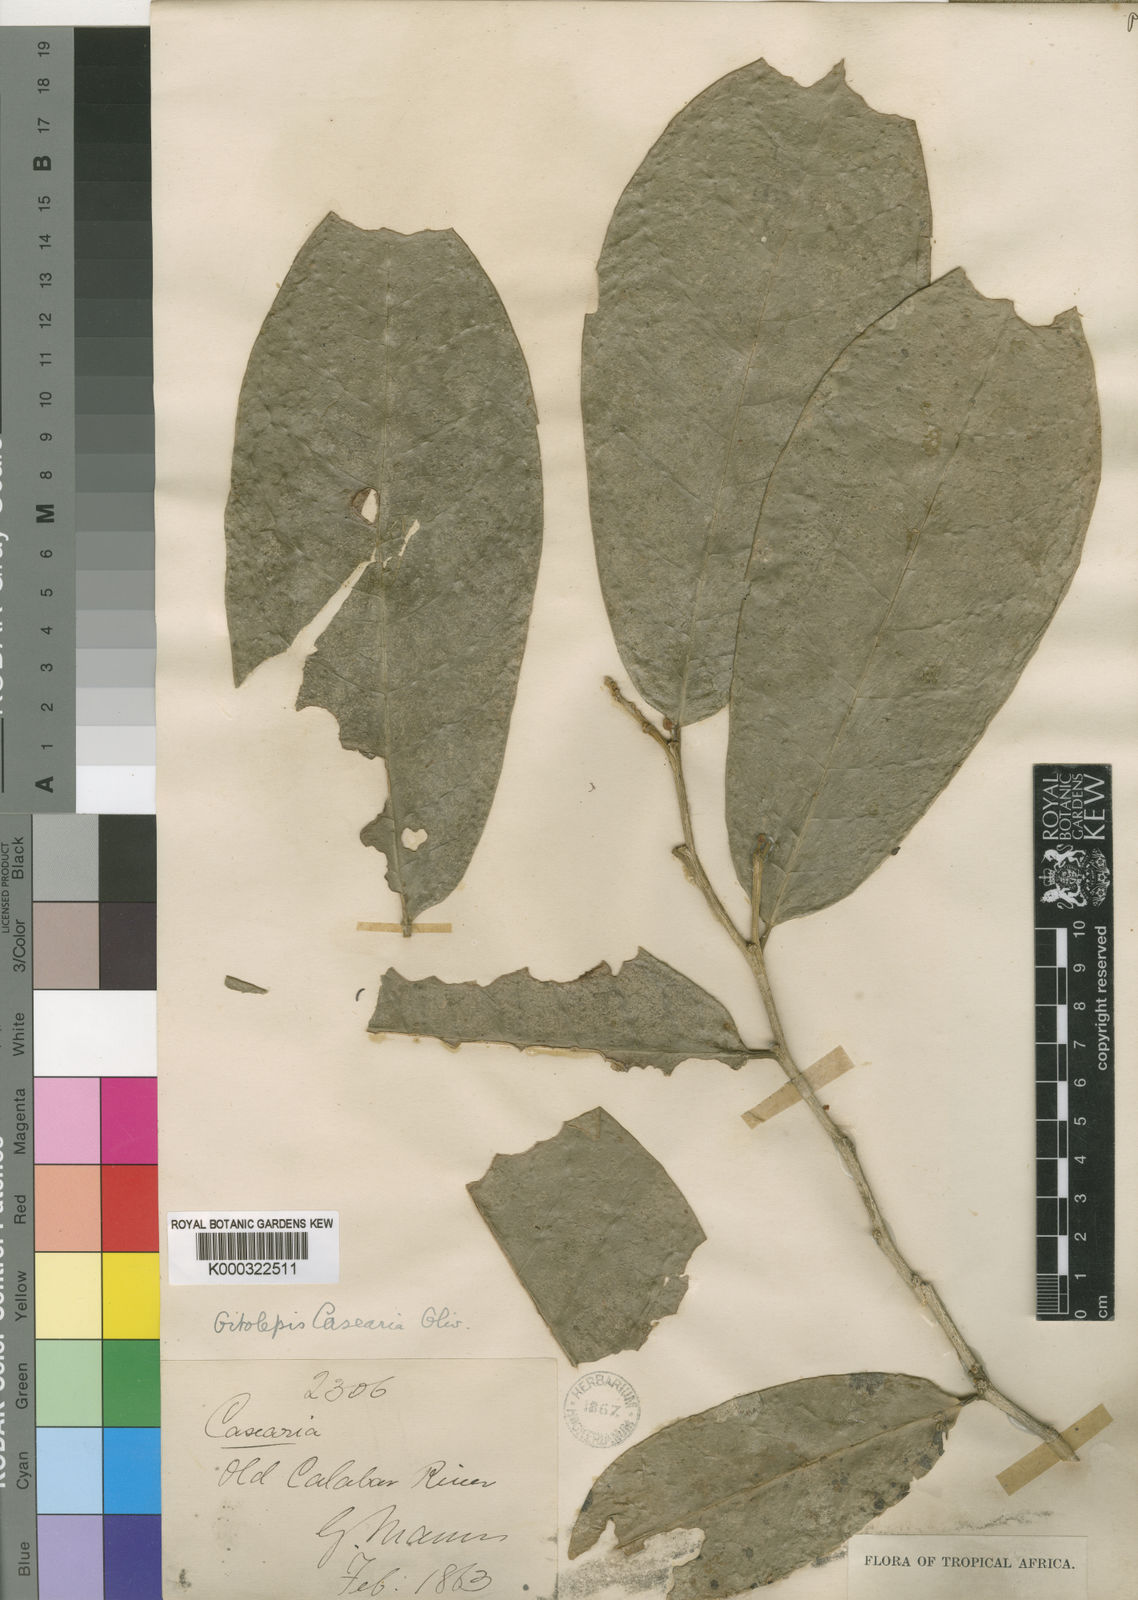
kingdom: Plantae
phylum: Tracheophyta
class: Magnoliopsida
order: Malvales
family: Thymelaeaceae
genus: Octolepis
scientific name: Octolepis casearia
